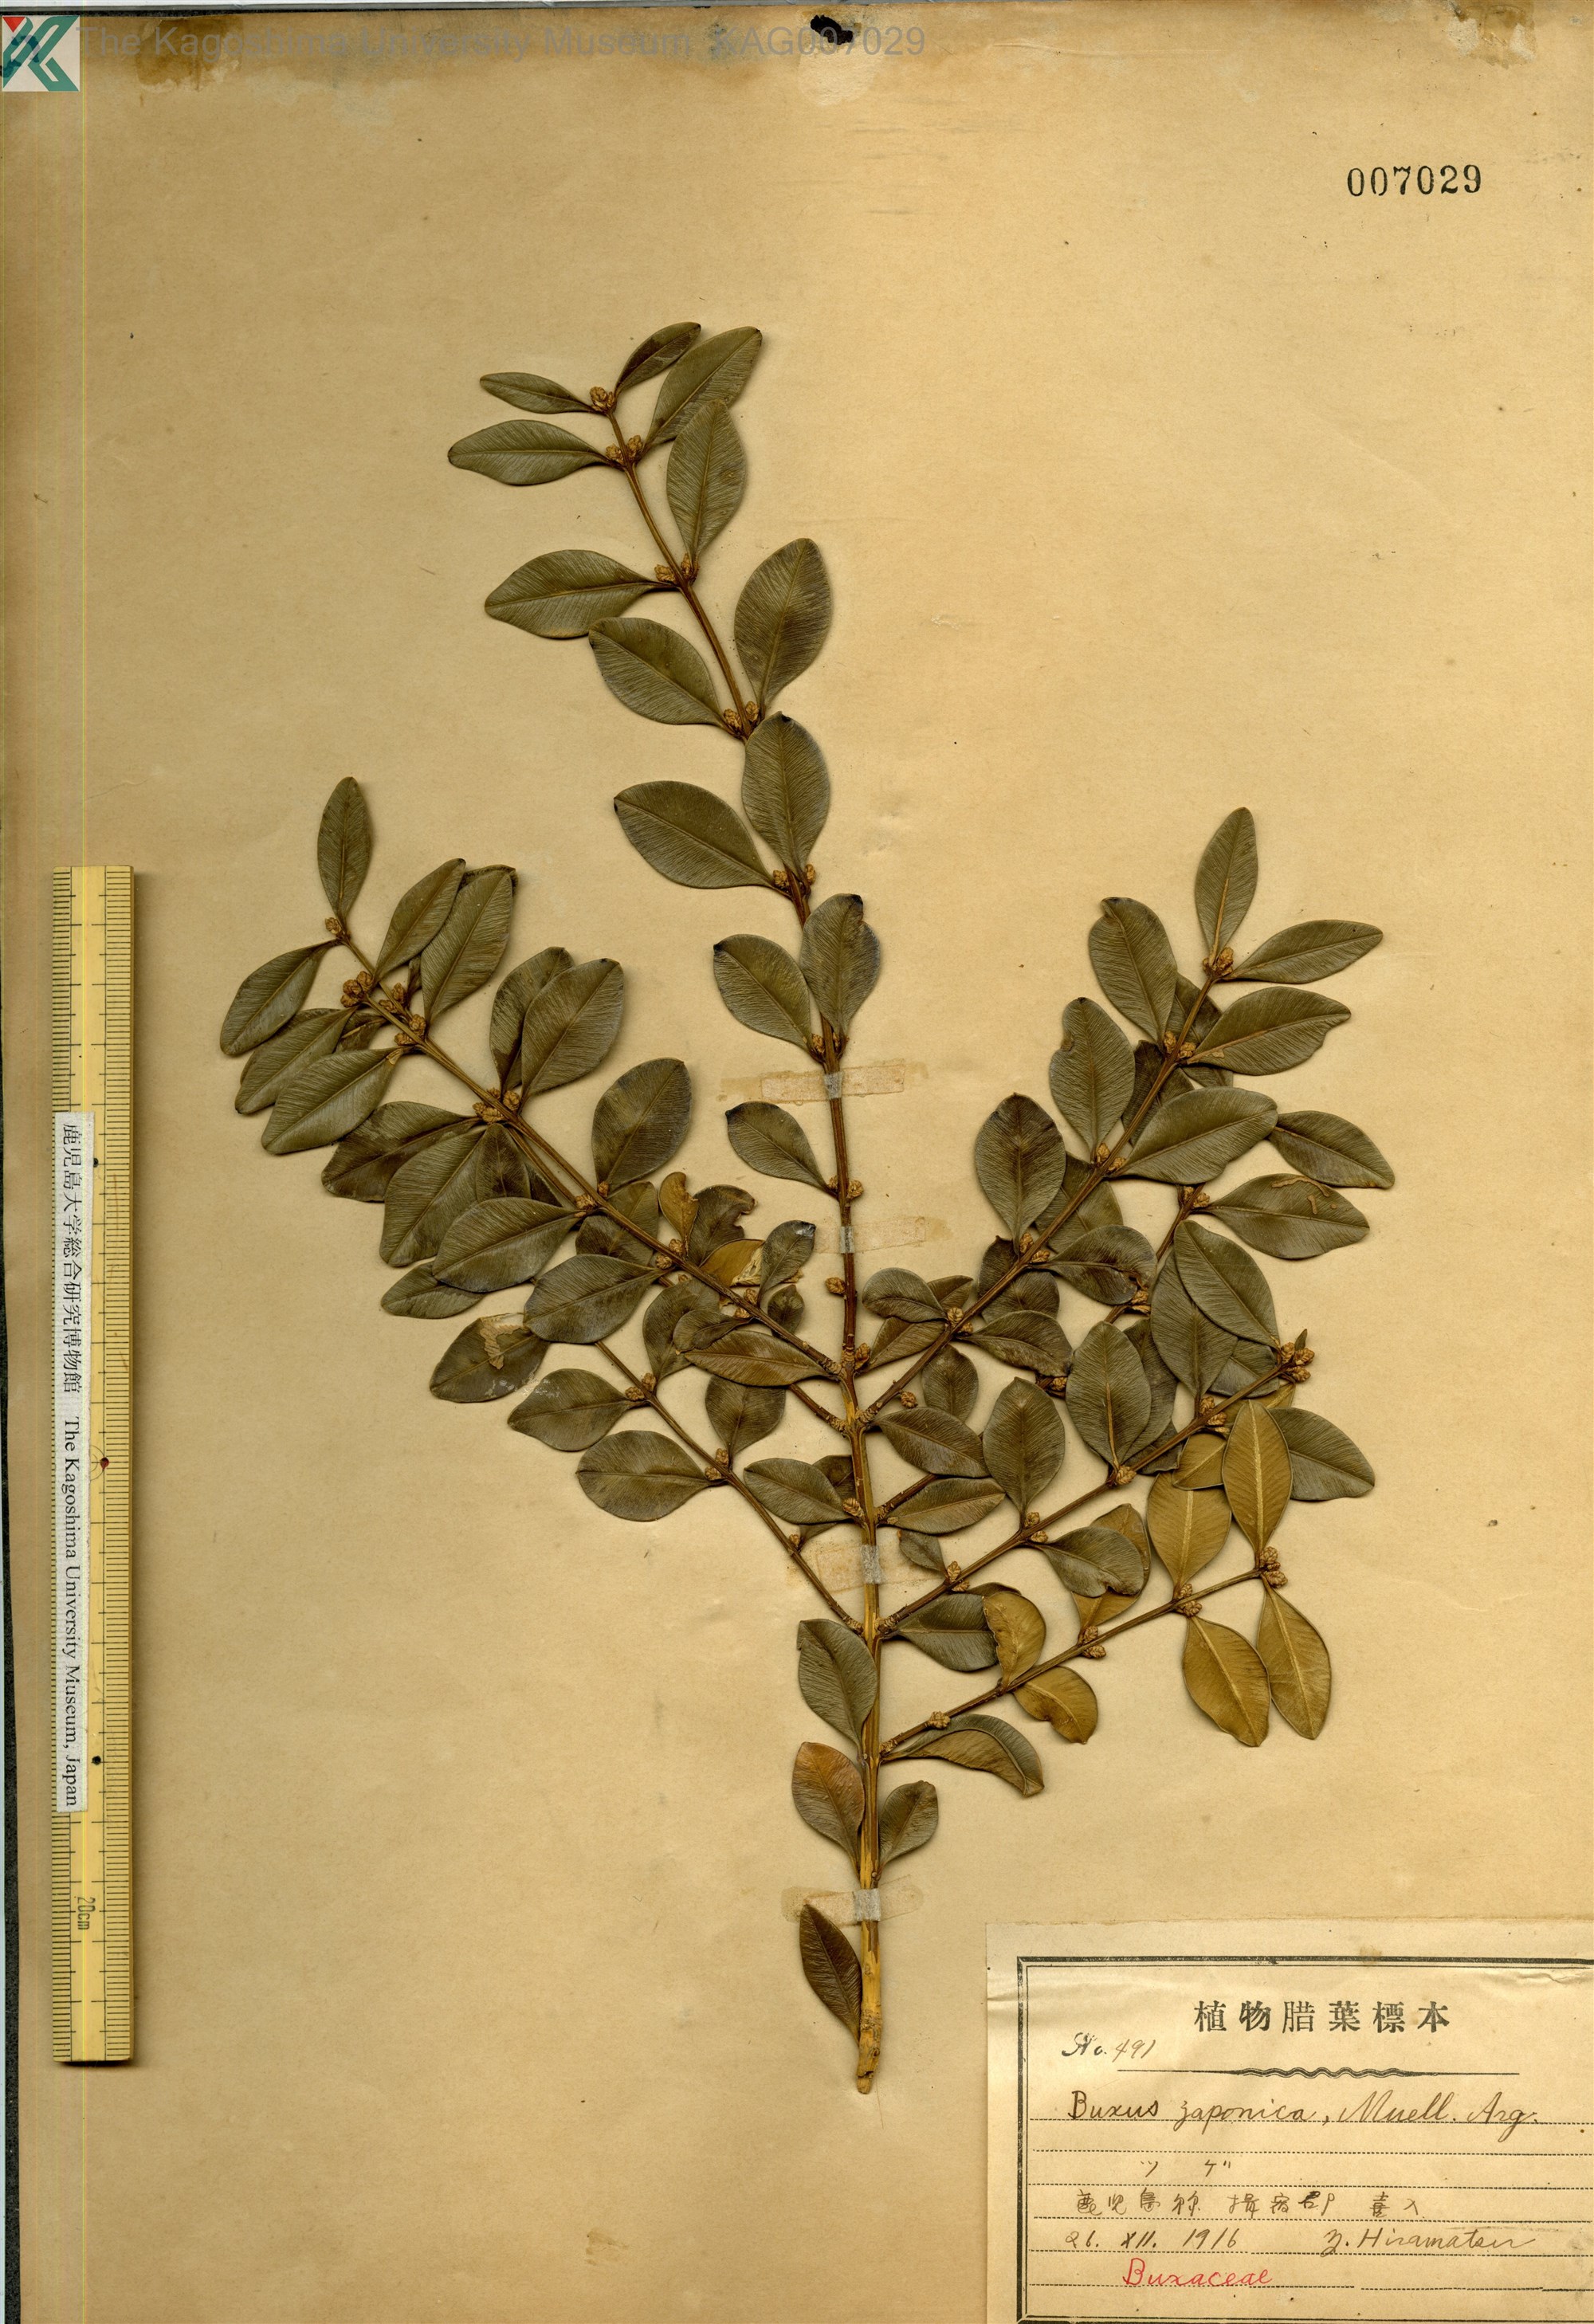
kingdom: Plantae
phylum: Tracheophyta
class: Magnoliopsida
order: Buxales
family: Buxaceae
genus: Buxus
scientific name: Buxus sinica
